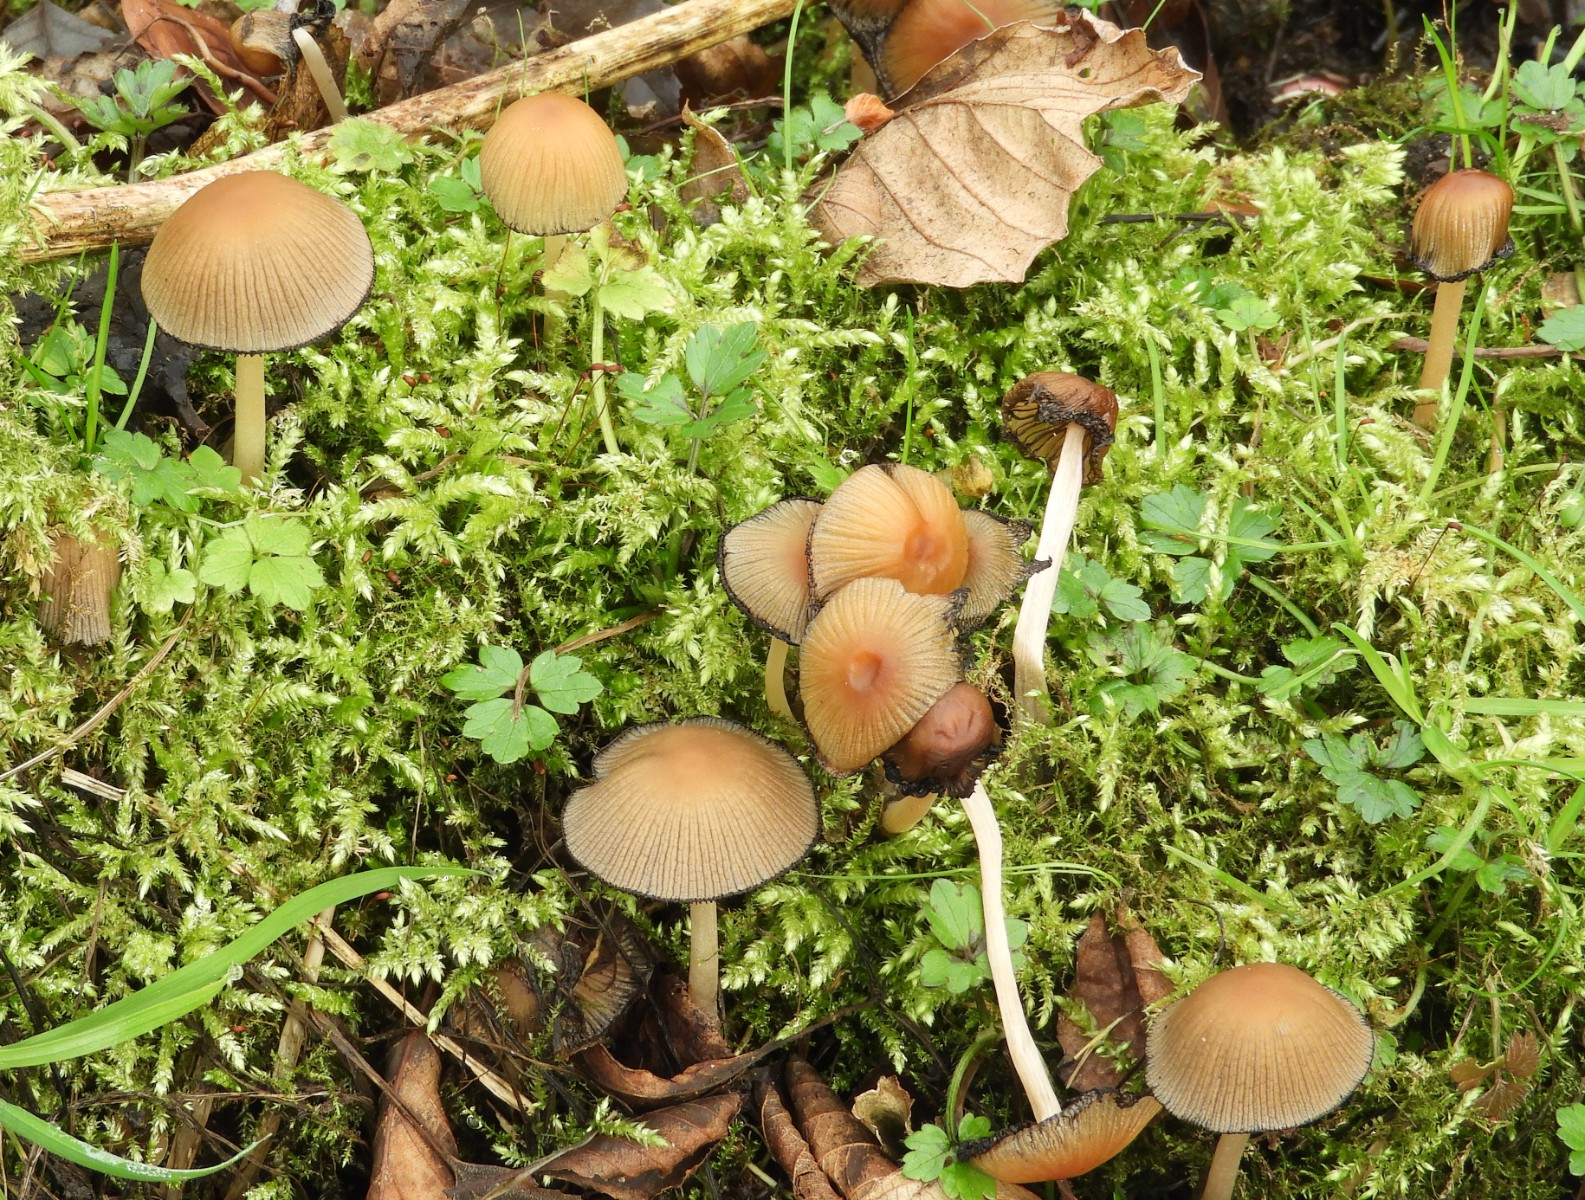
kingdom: Fungi
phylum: Basidiomycota
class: Agaricomycetes
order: Agaricales
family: Psathyrellaceae
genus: Coprinellus
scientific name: Coprinellus micaceus
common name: glimmer-blækhat
